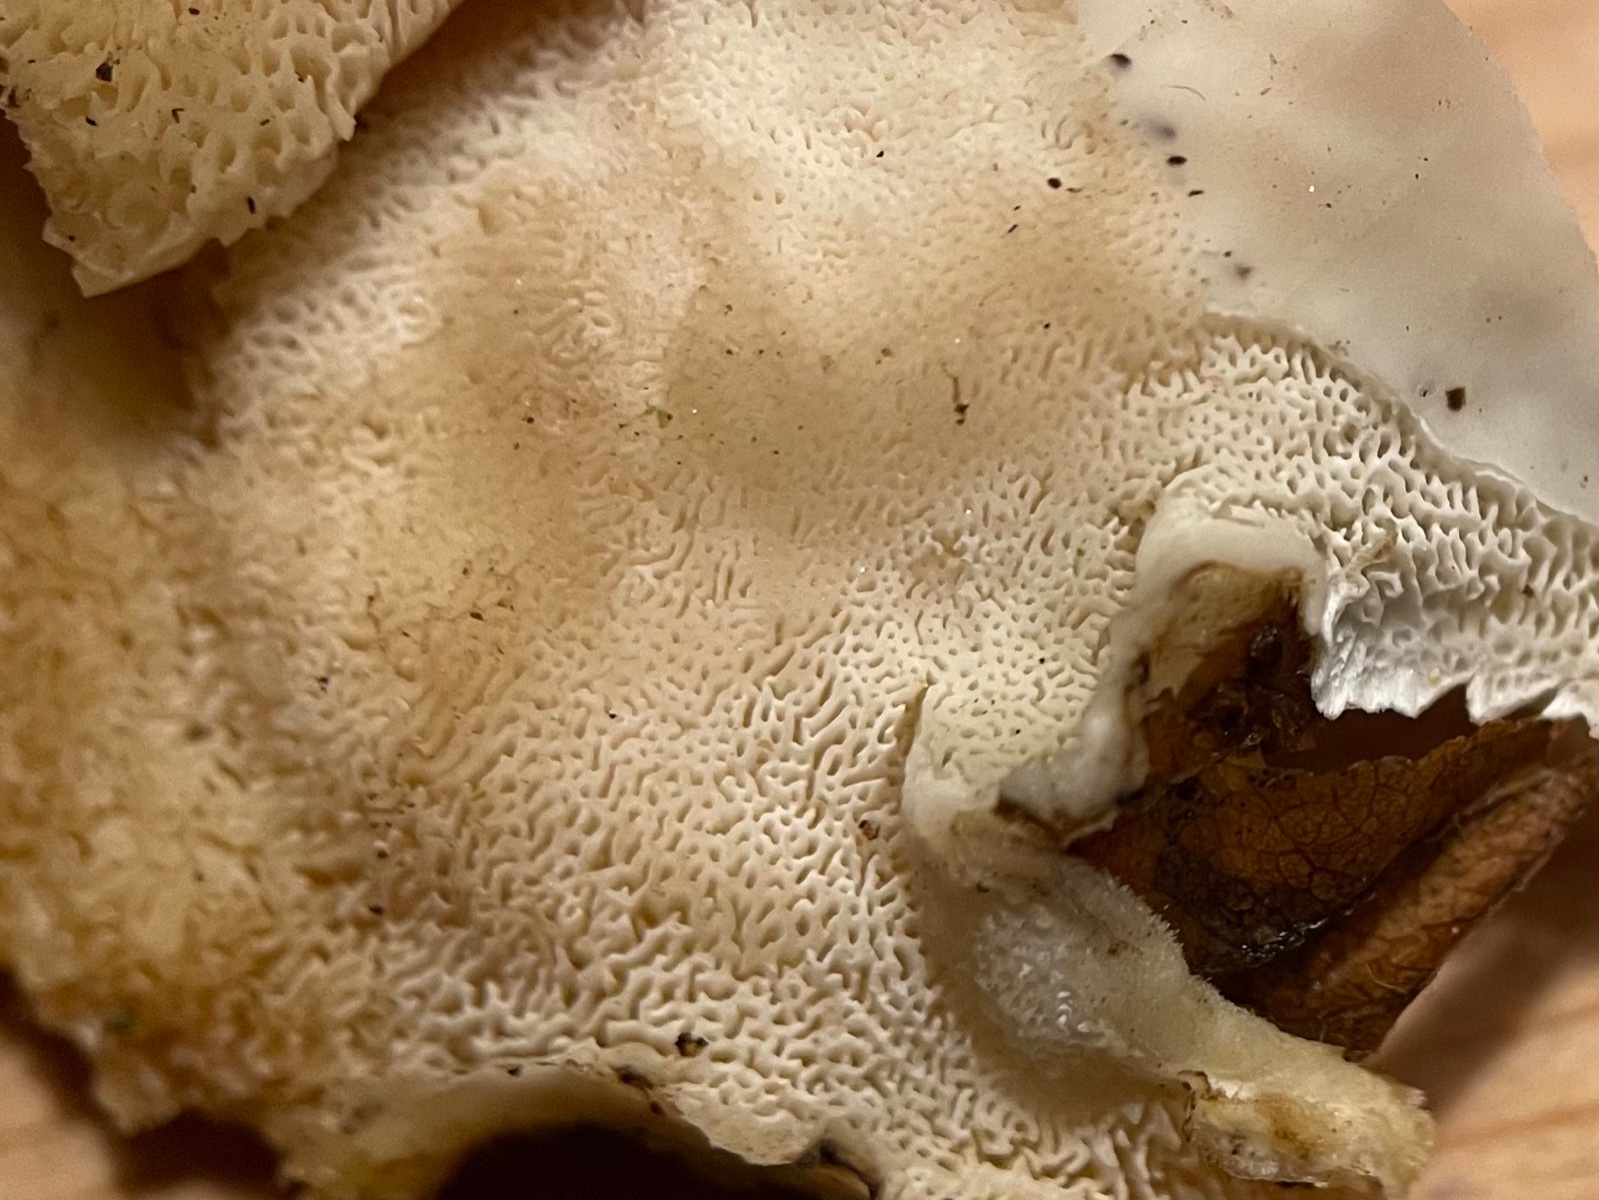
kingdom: Fungi
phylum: Basidiomycota
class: Agaricomycetes
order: Polyporales
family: Polyporaceae
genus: Trametes
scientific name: Trametes
